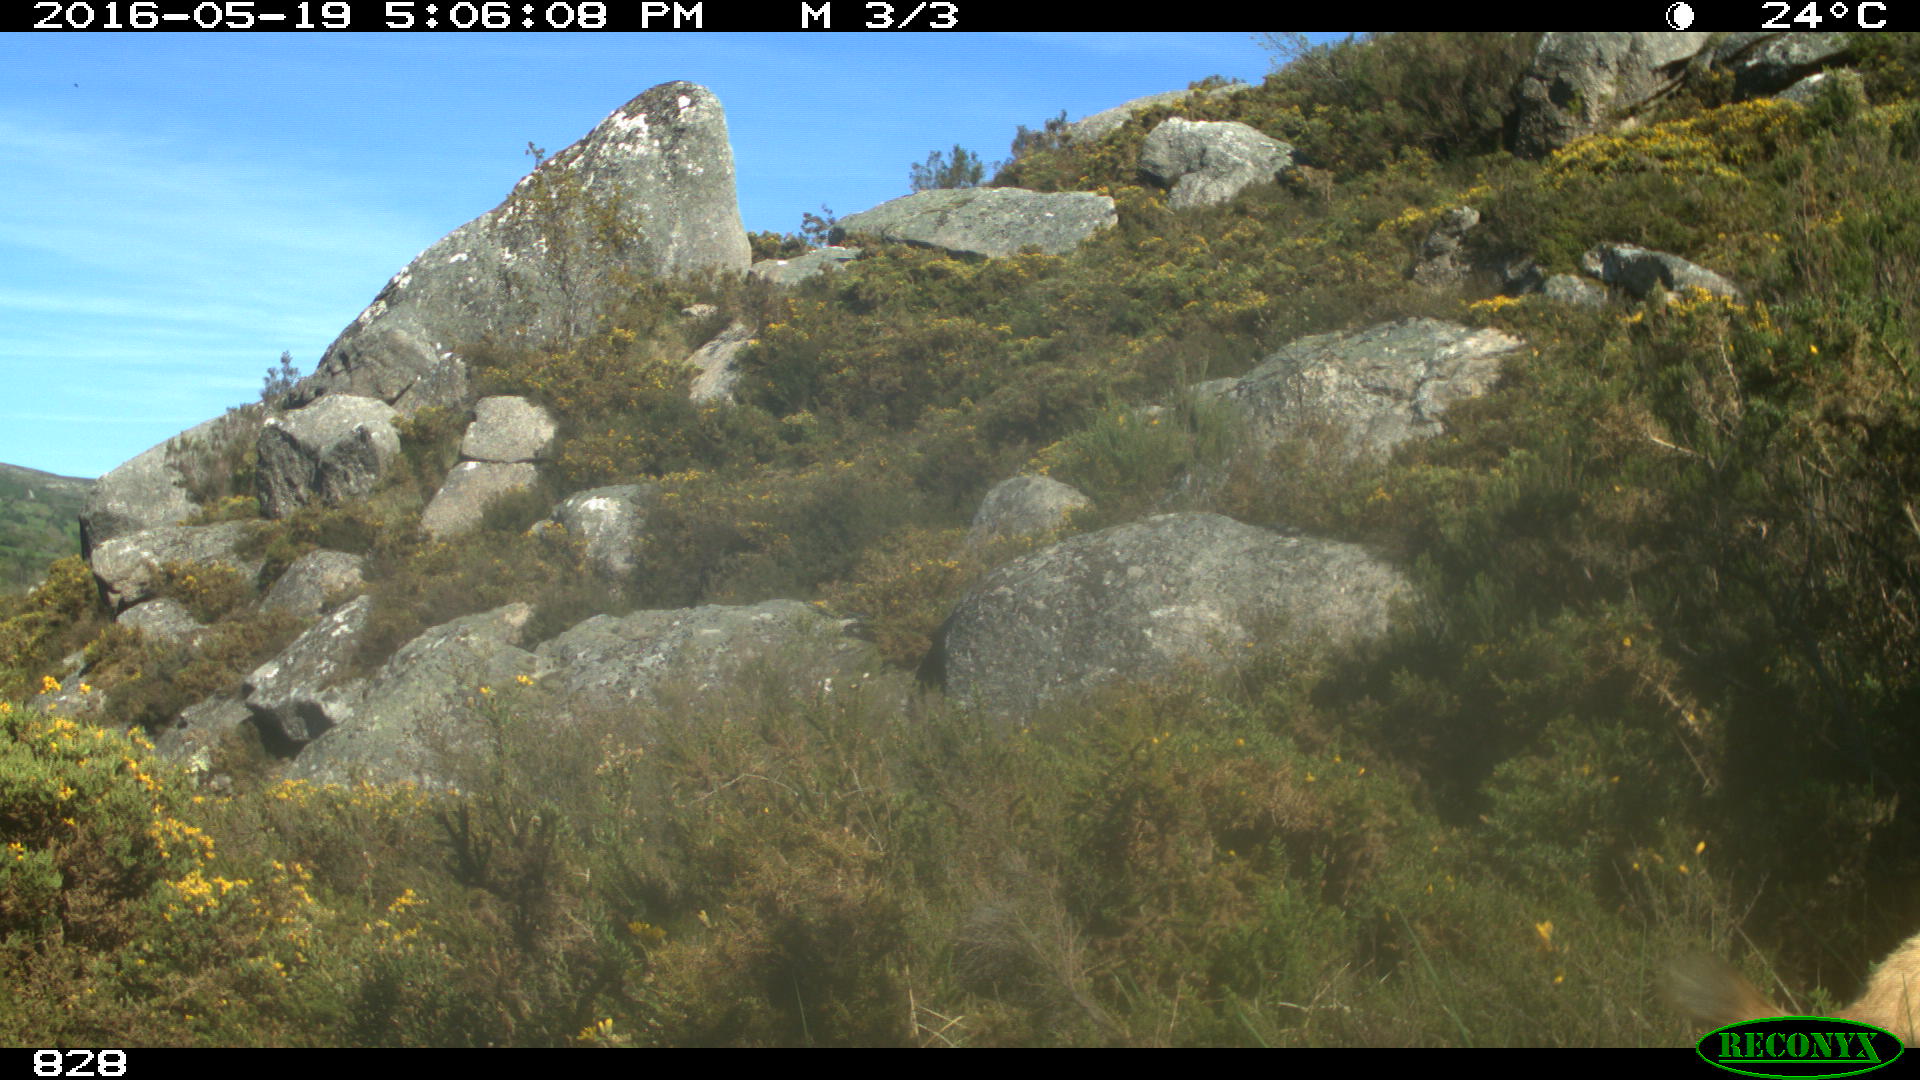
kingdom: Animalia
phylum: Chordata
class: Mammalia
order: Artiodactyla
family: Bovidae
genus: Capra
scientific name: Capra hircus
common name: Domestic goat
